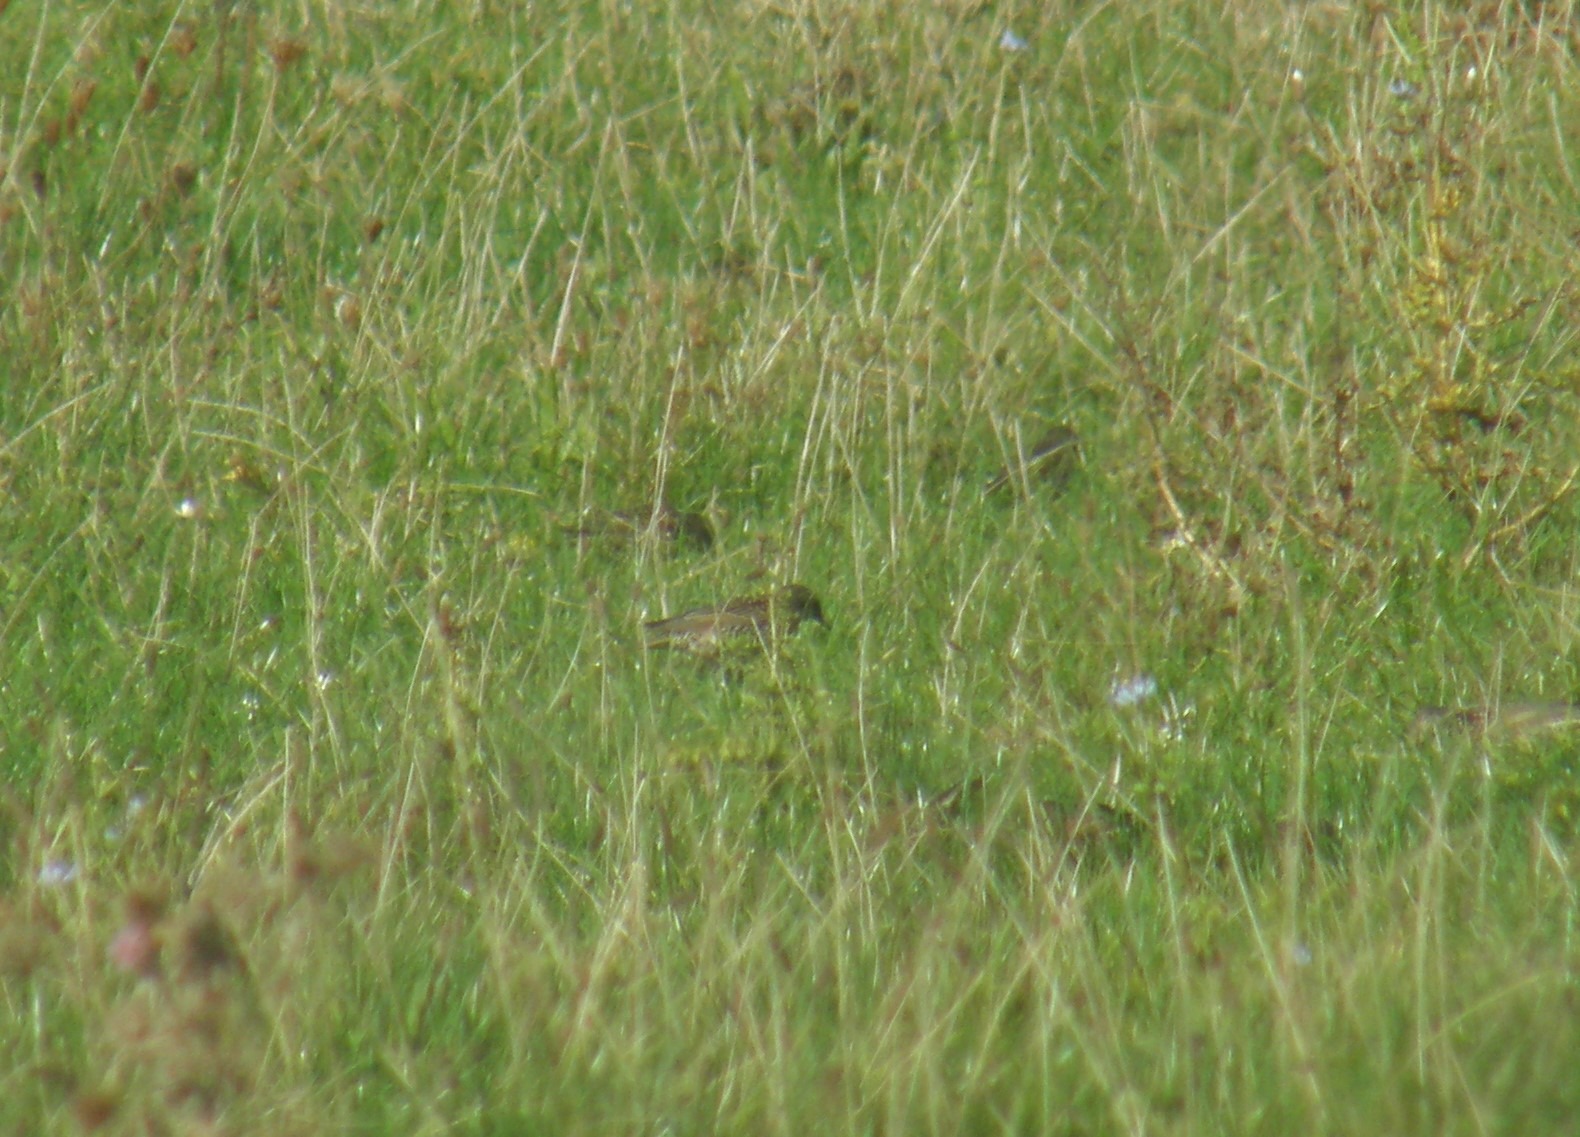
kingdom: Animalia
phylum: Chordata
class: Aves
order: Passeriformes
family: Sturnidae
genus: Sturnus
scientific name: Sturnus vulgaris
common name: Stær
